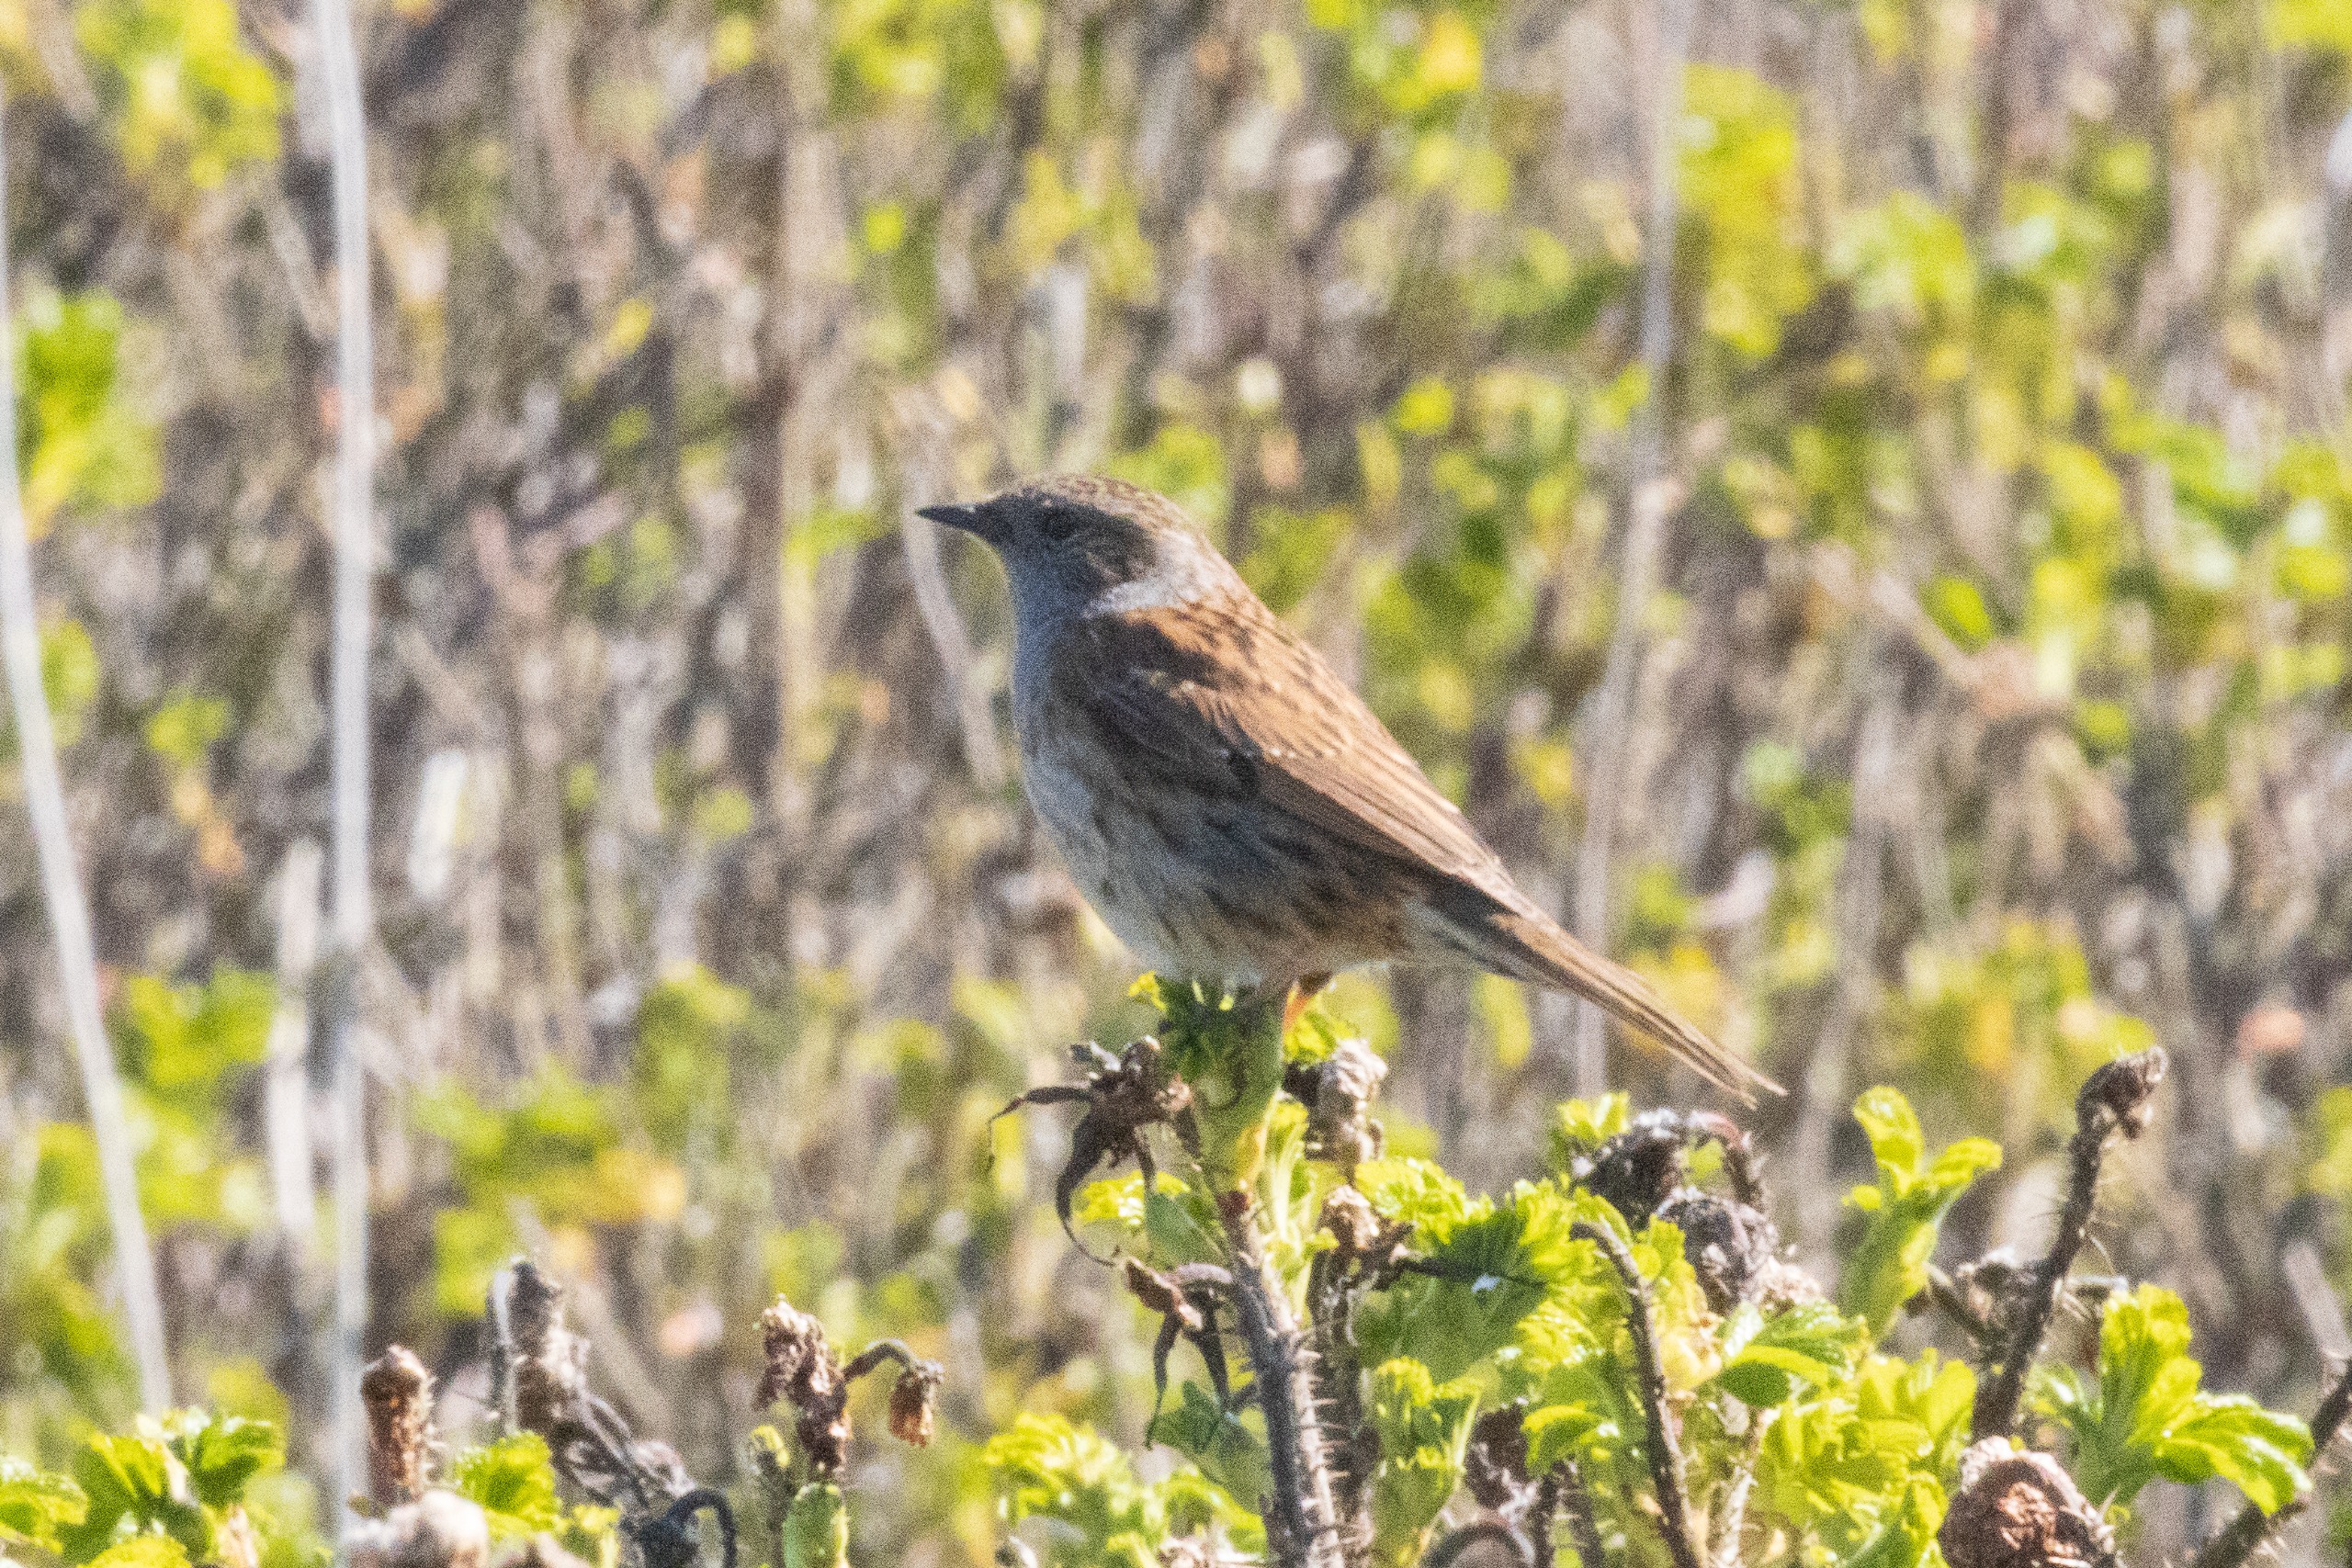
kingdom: Animalia
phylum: Chordata
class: Aves
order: Passeriformes
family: Prunellidae
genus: Prunella
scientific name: Prunella modularis
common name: Jernspurv
